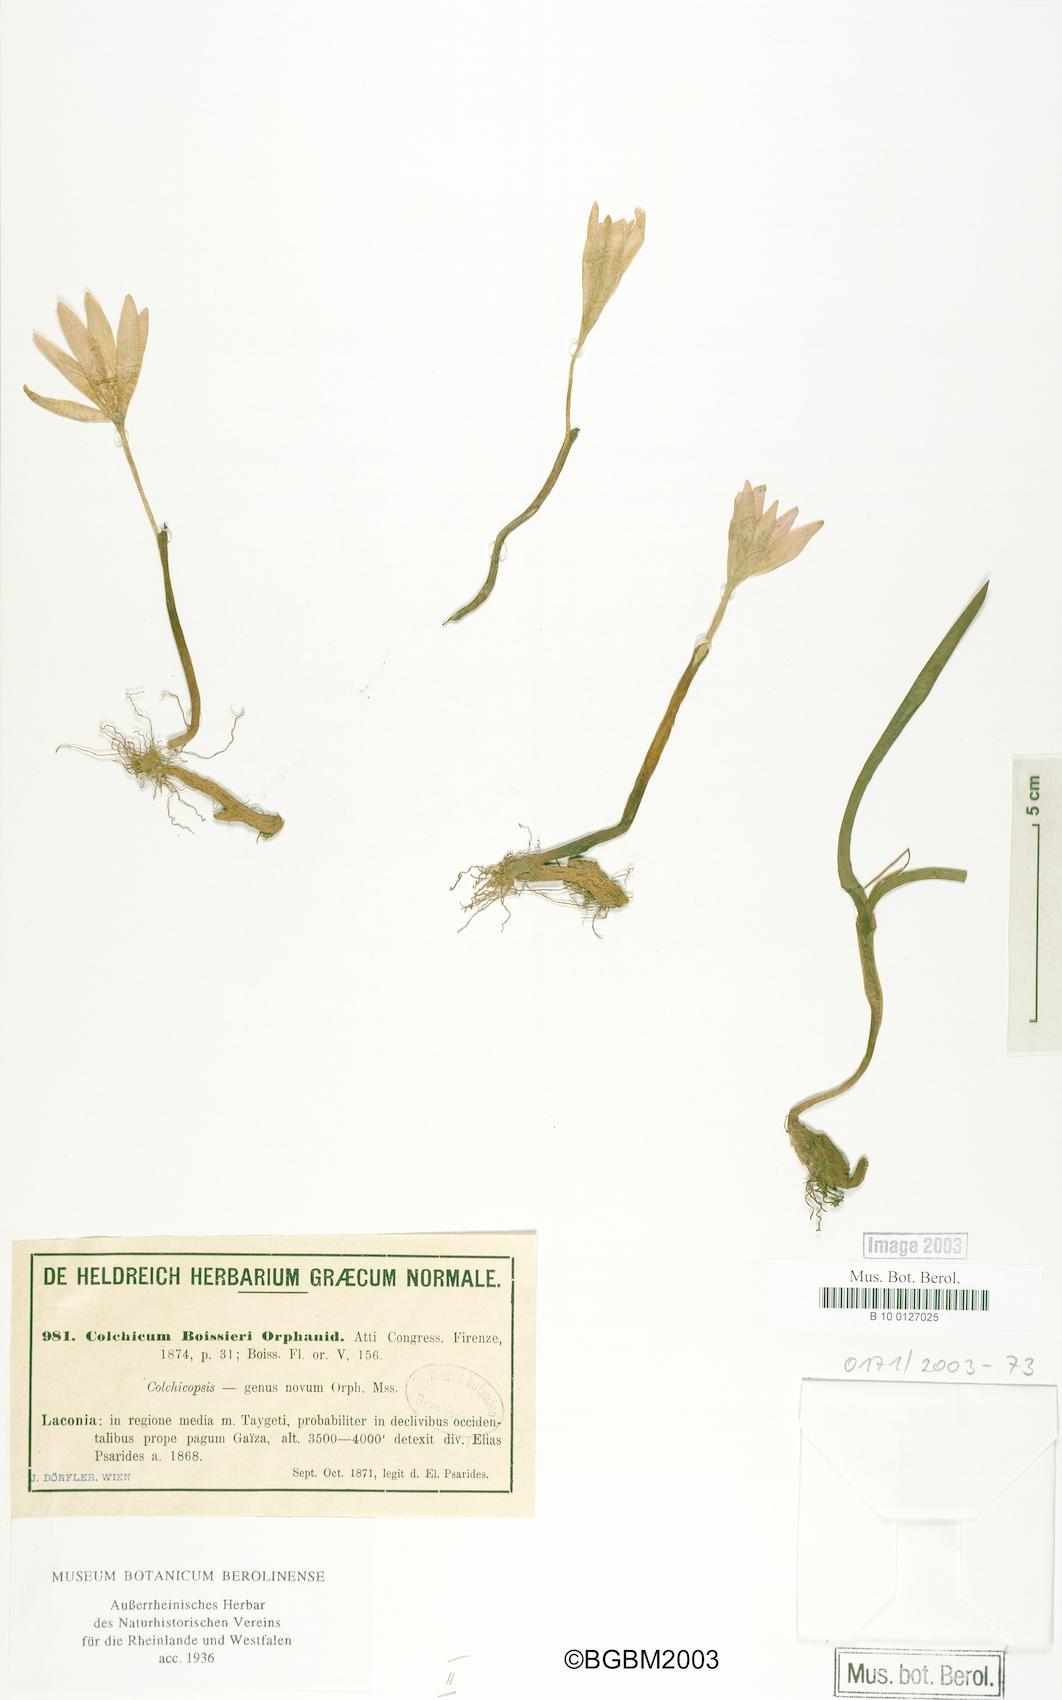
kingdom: Plantae
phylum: Tracheophyta
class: Liliopsida
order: Liliales
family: Colchicaceae
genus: Colchicum
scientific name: Colchicum boissieri
